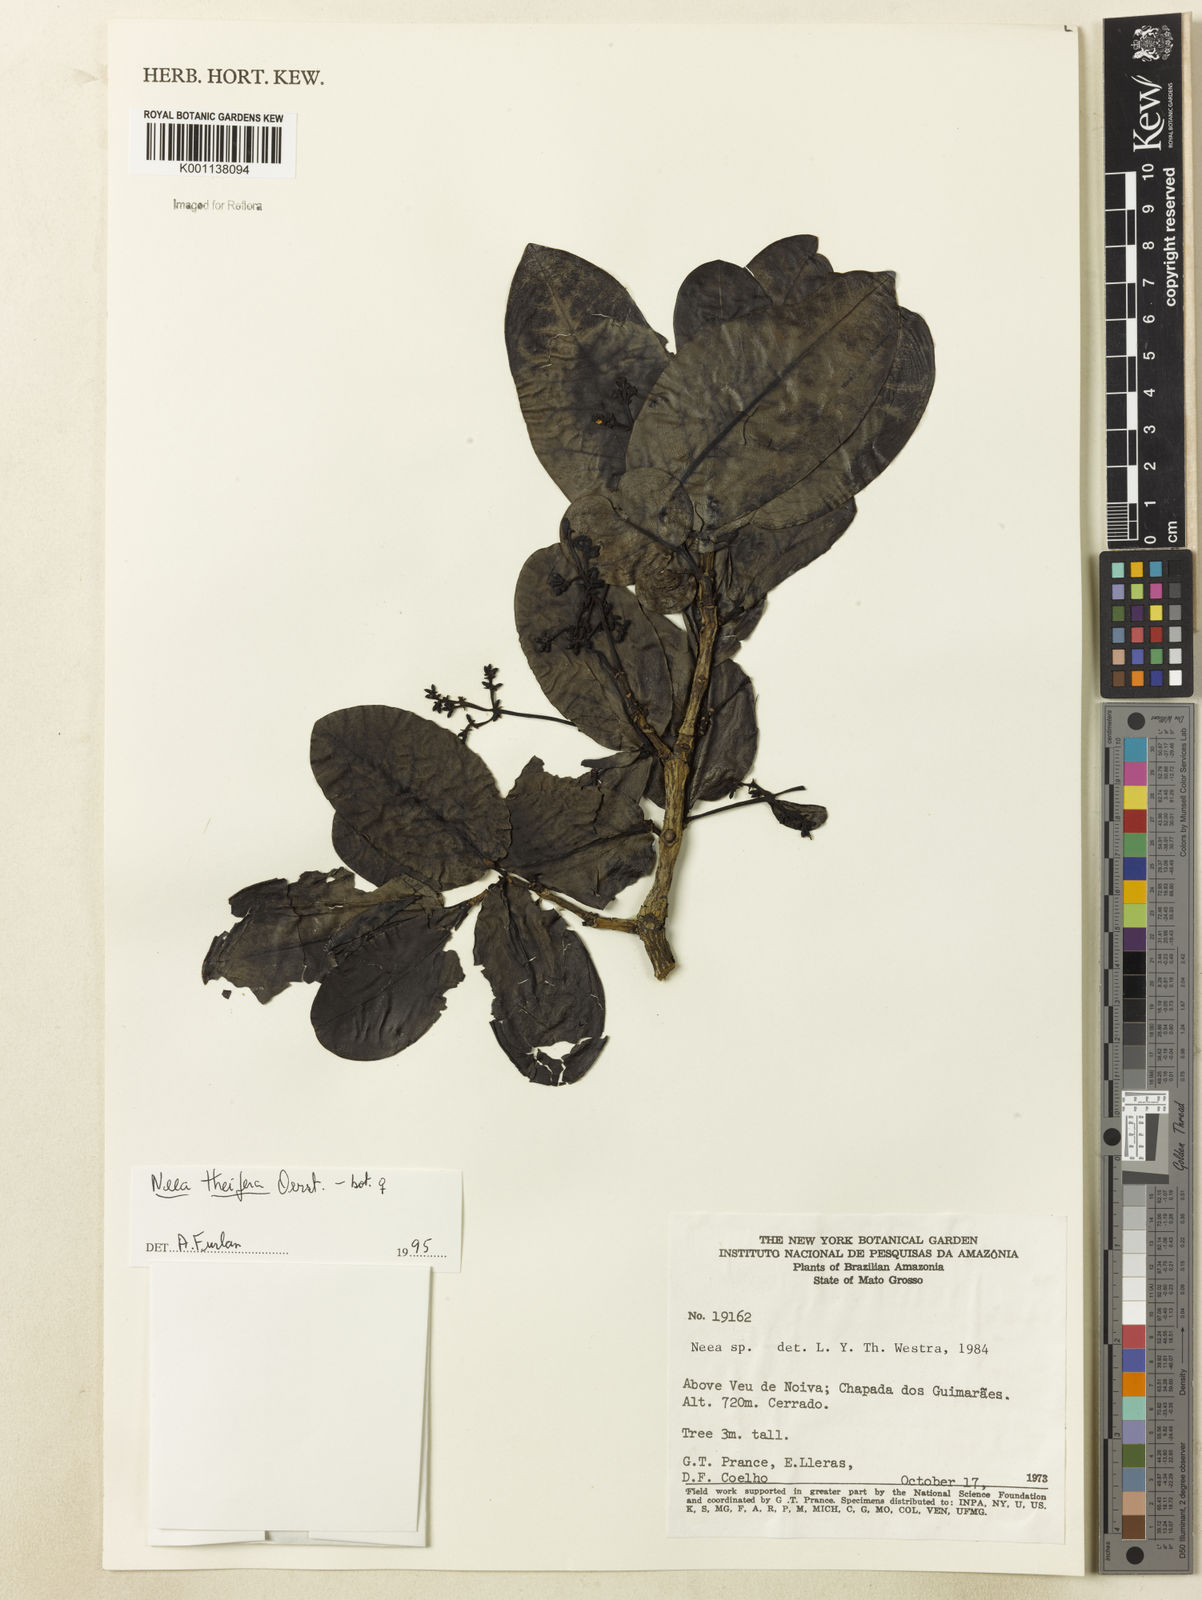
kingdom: Plantae
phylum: Tracheophyta
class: Magnoliopsida
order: Caryophyllales
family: Nyctaginaceae
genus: Neea
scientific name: Neea
